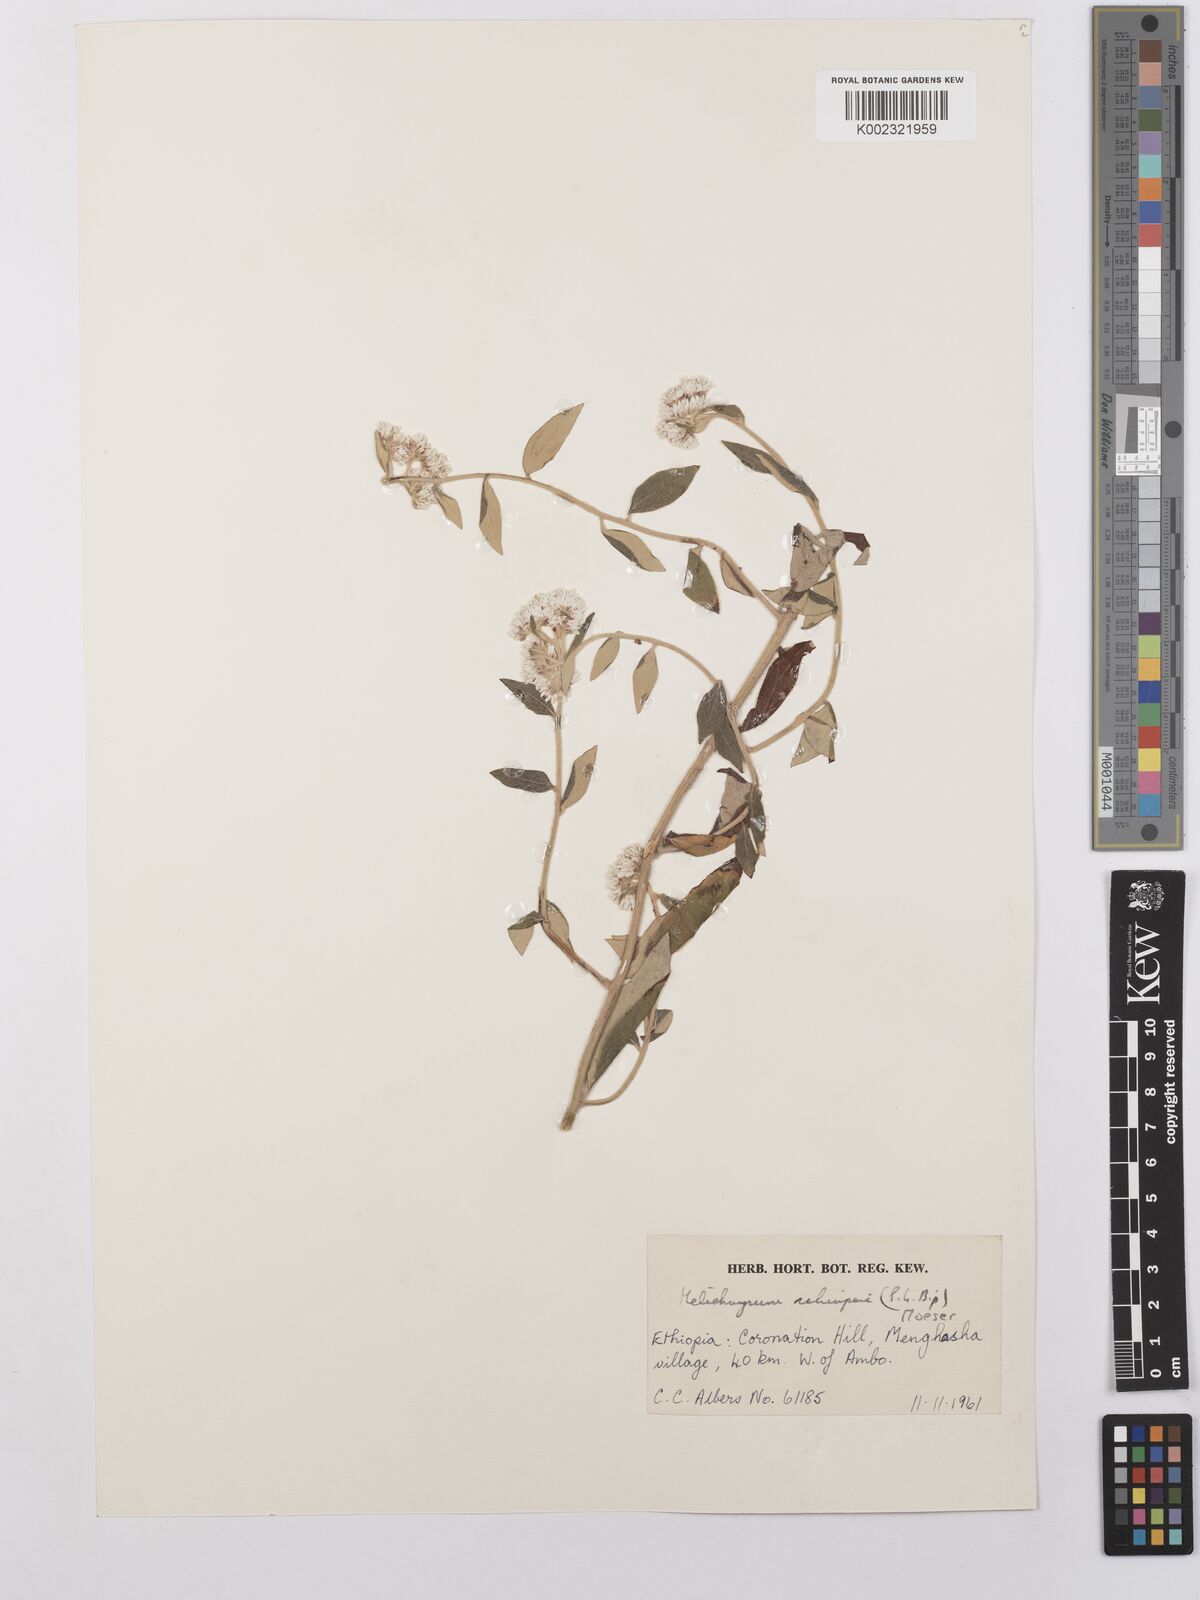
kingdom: Plantae
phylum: Tracheophyta
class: Magnoliopsida
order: Asterales
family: Asteraceae
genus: Helichrysum
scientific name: Helichrysum schimperi
